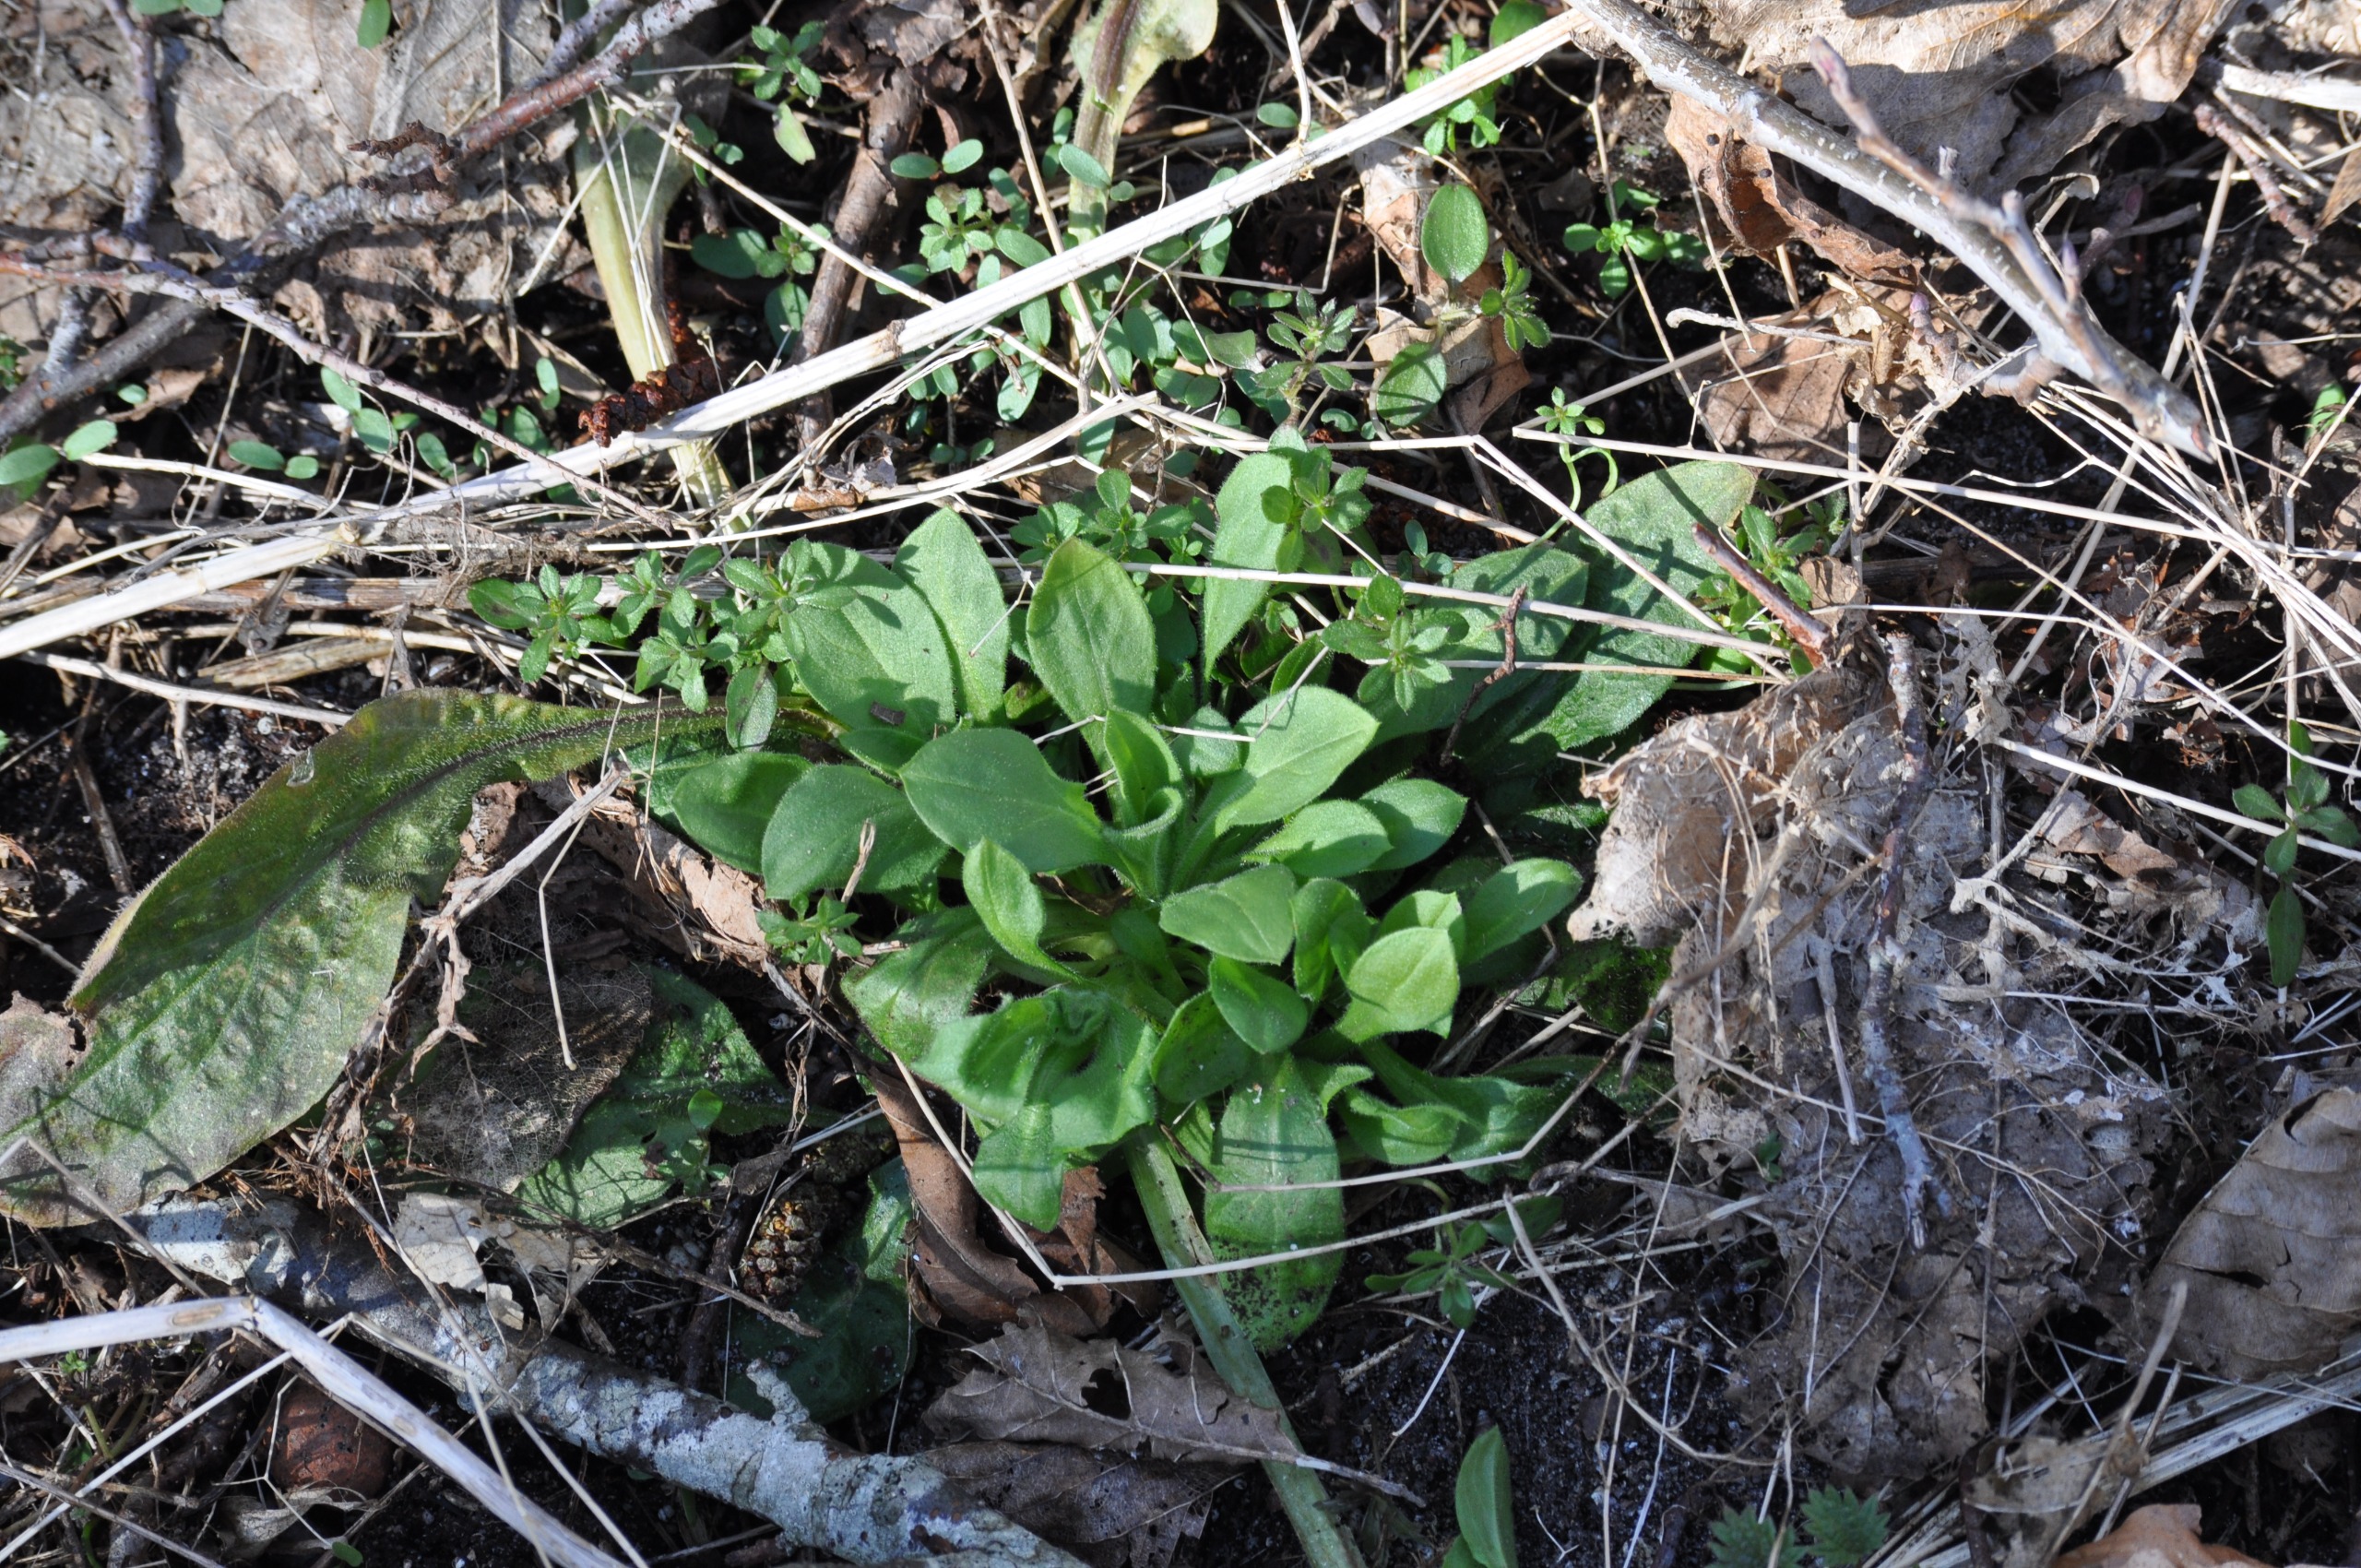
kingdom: Plantae
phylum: Tracheophyta
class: Magnoliopsida
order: Caryophyllales
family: Caryophyllaceae
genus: Silene
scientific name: Silene dioica
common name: Dagpragtstjerne
